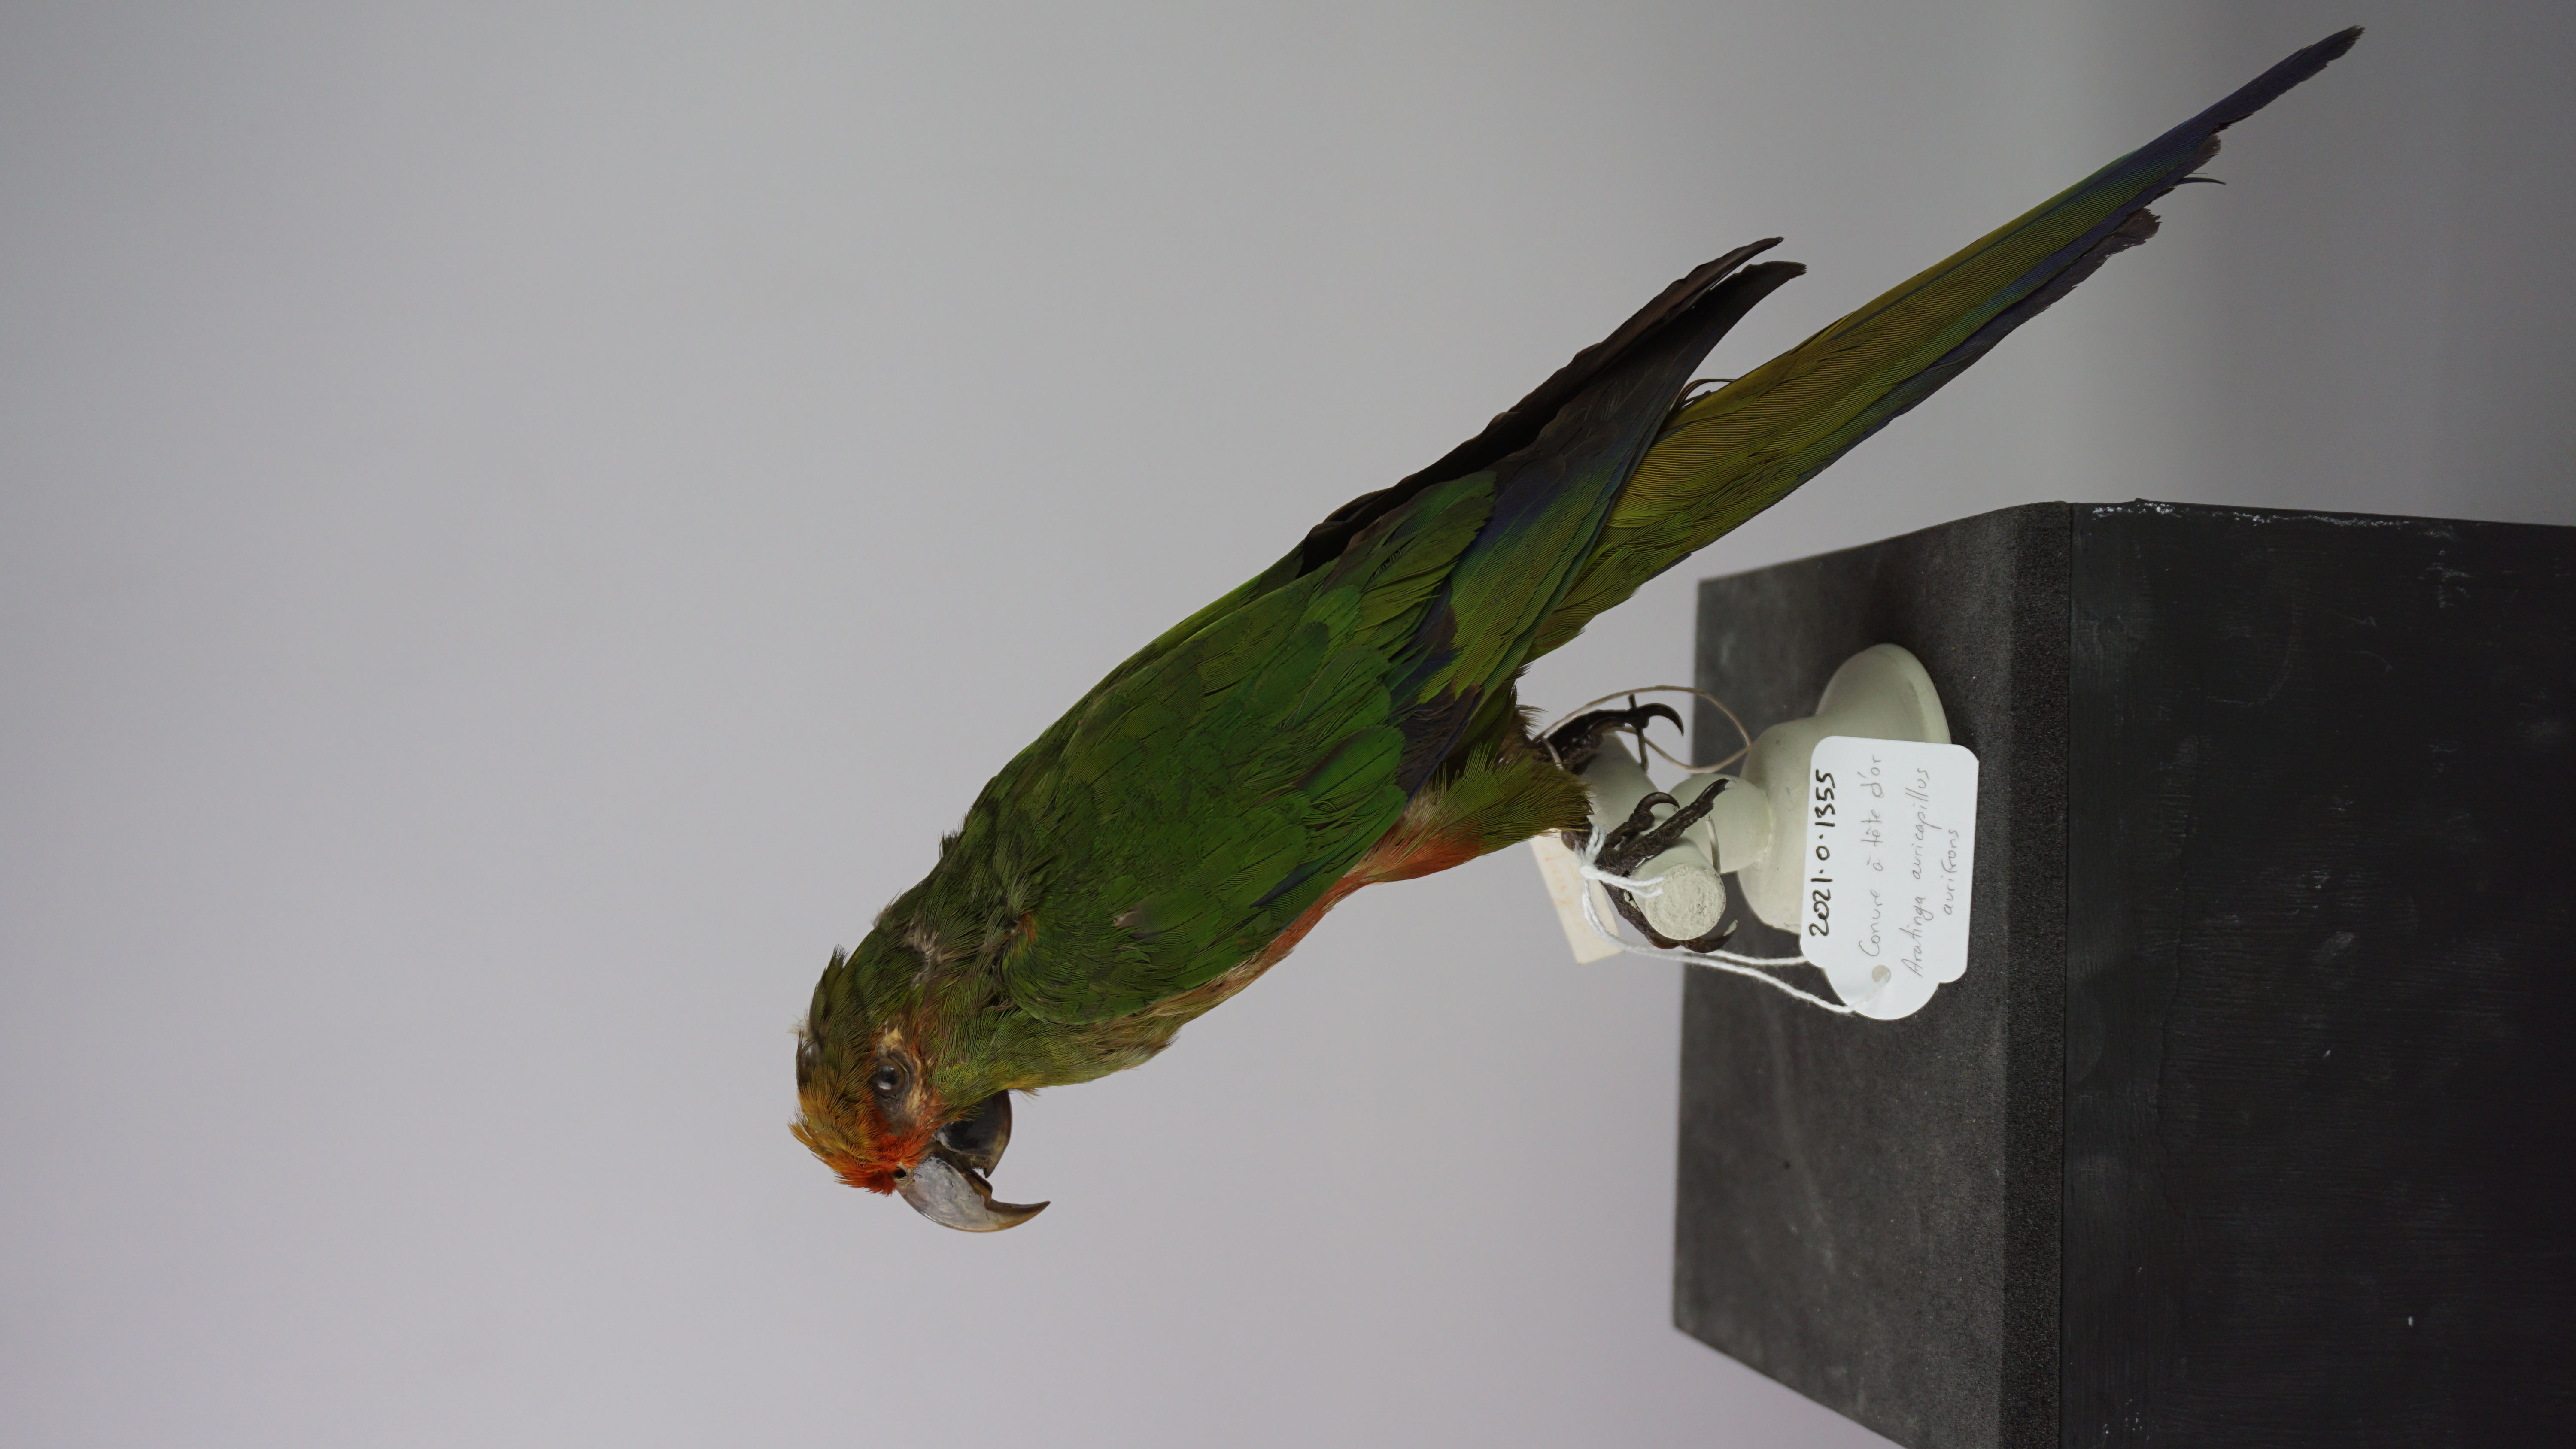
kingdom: Animalia
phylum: Chordata
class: Aves
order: Psittaciformes
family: Psittacidae
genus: Aratinga
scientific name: Aratinga auricapillus
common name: Golden-capped parakeet
